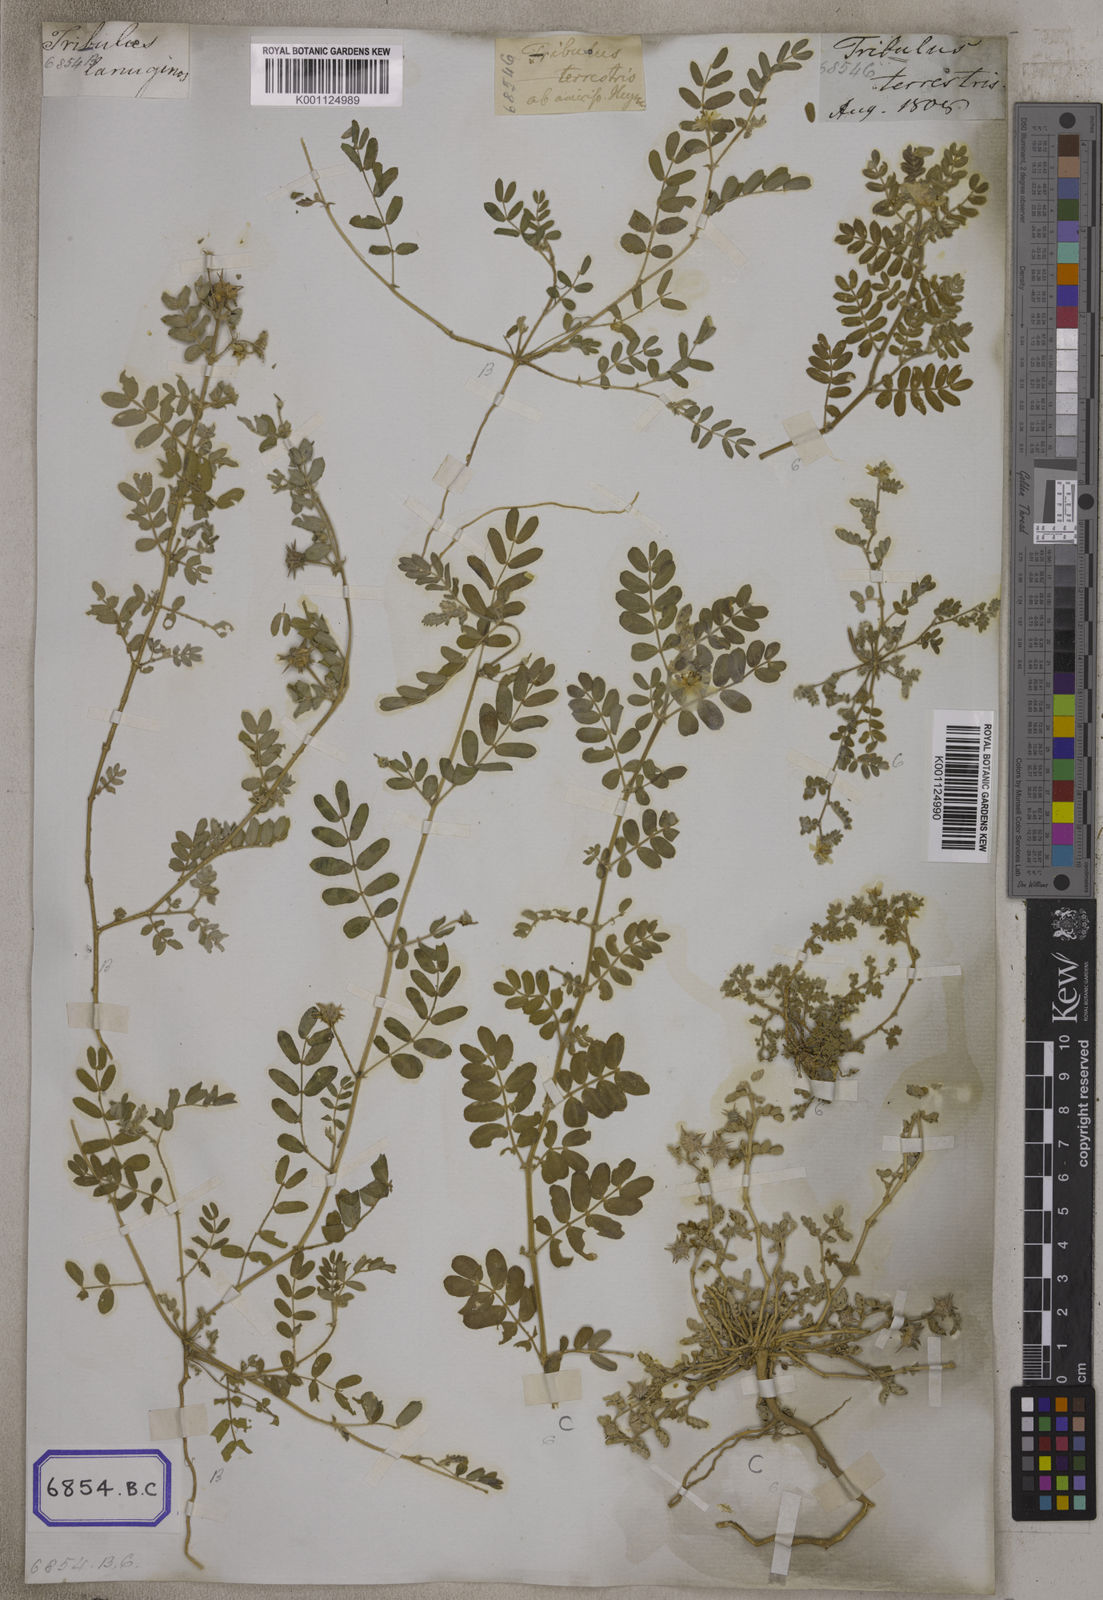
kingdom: Plantae
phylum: Tracheophyta
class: Magnoliopsida
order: Zygophyllales
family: Zygophyllaceae
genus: Tribulus
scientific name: Tribulus terrestris
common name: Puncturevine
